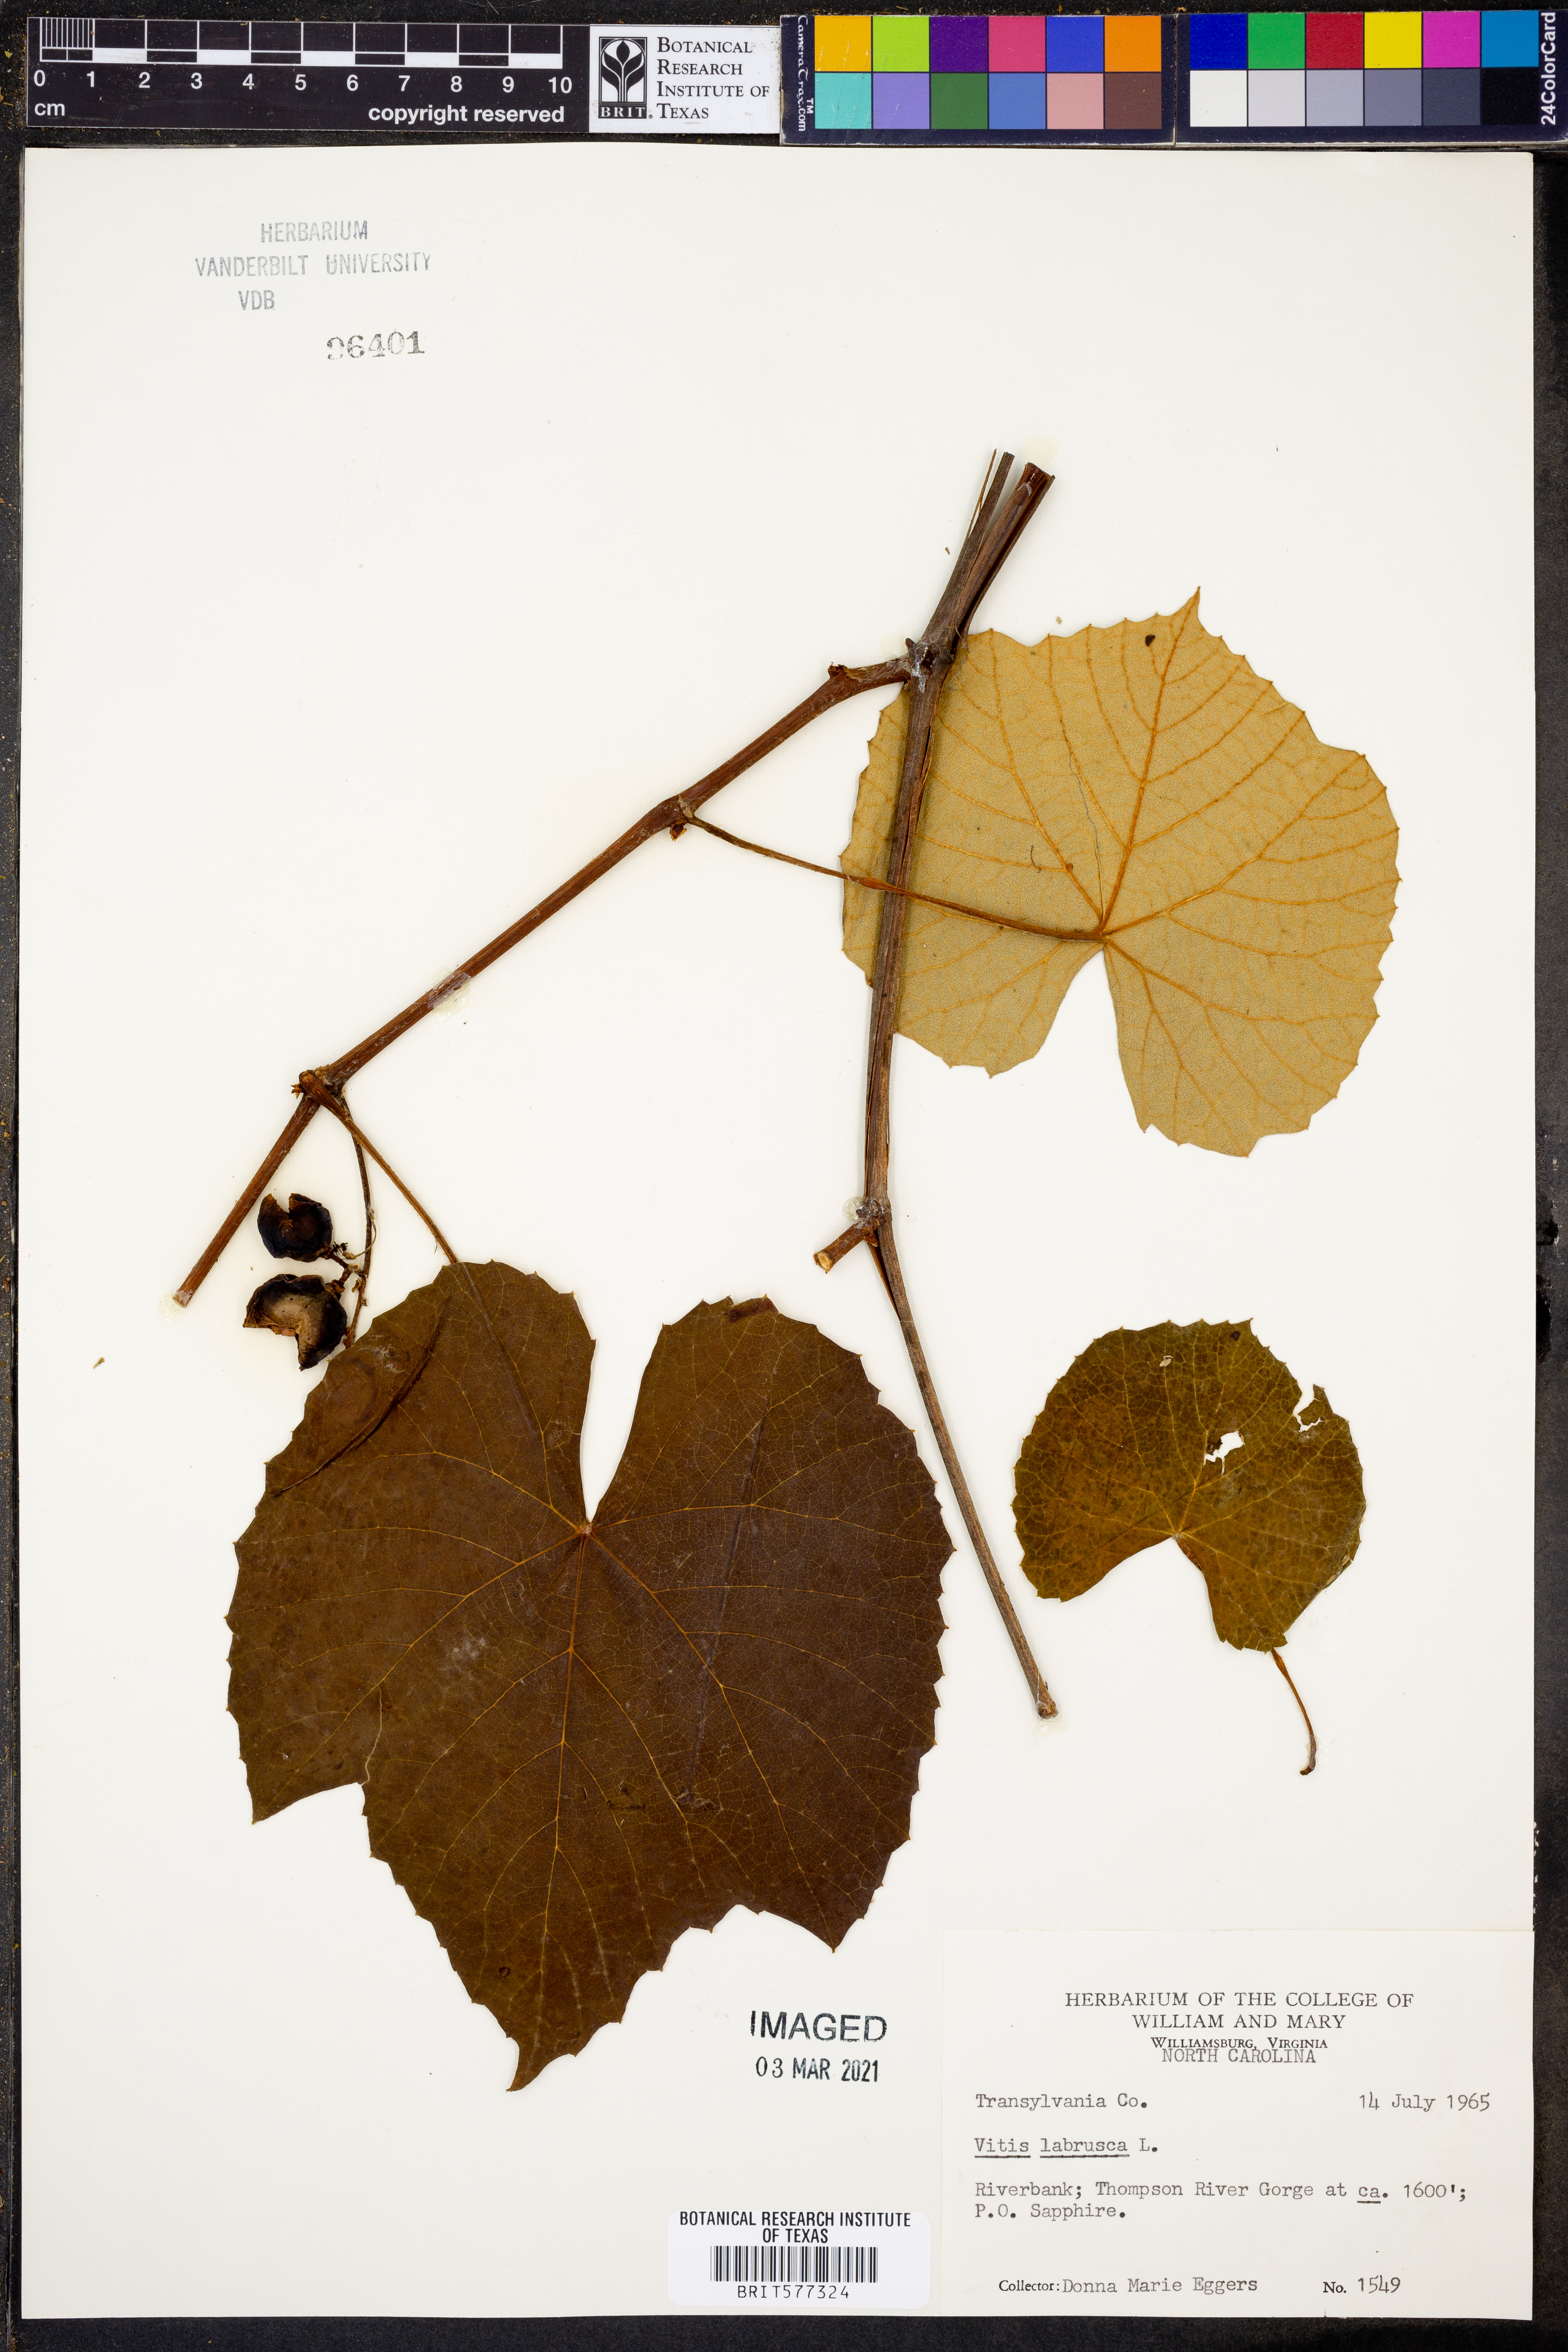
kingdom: Plantae
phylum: Tracheophyta
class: Magnoliopsida
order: Vitales
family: Vitaceae
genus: Vitis
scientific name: Vitis labrusca
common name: Concord grape
